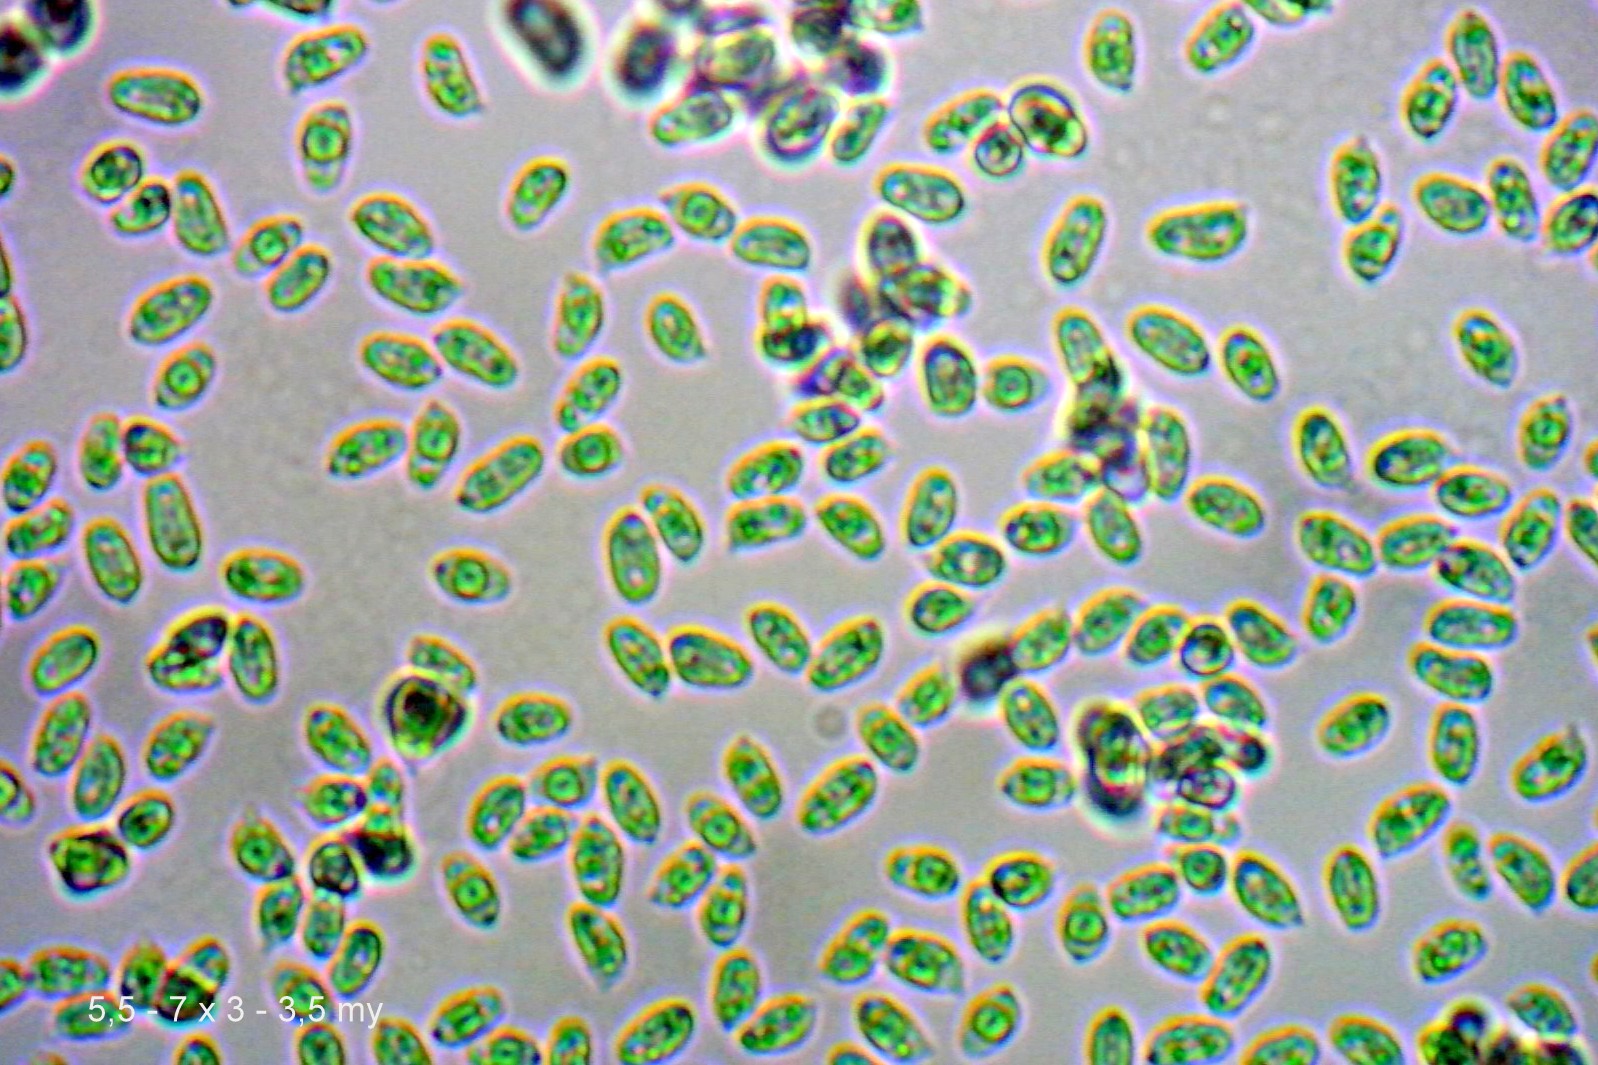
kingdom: Fungi
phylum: Basidiomycota
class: Agaricomycetes
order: Agaricales
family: Clavariaceae
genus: Clavaria
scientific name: Clavaria fumosa
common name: røggrå køllesvamp
